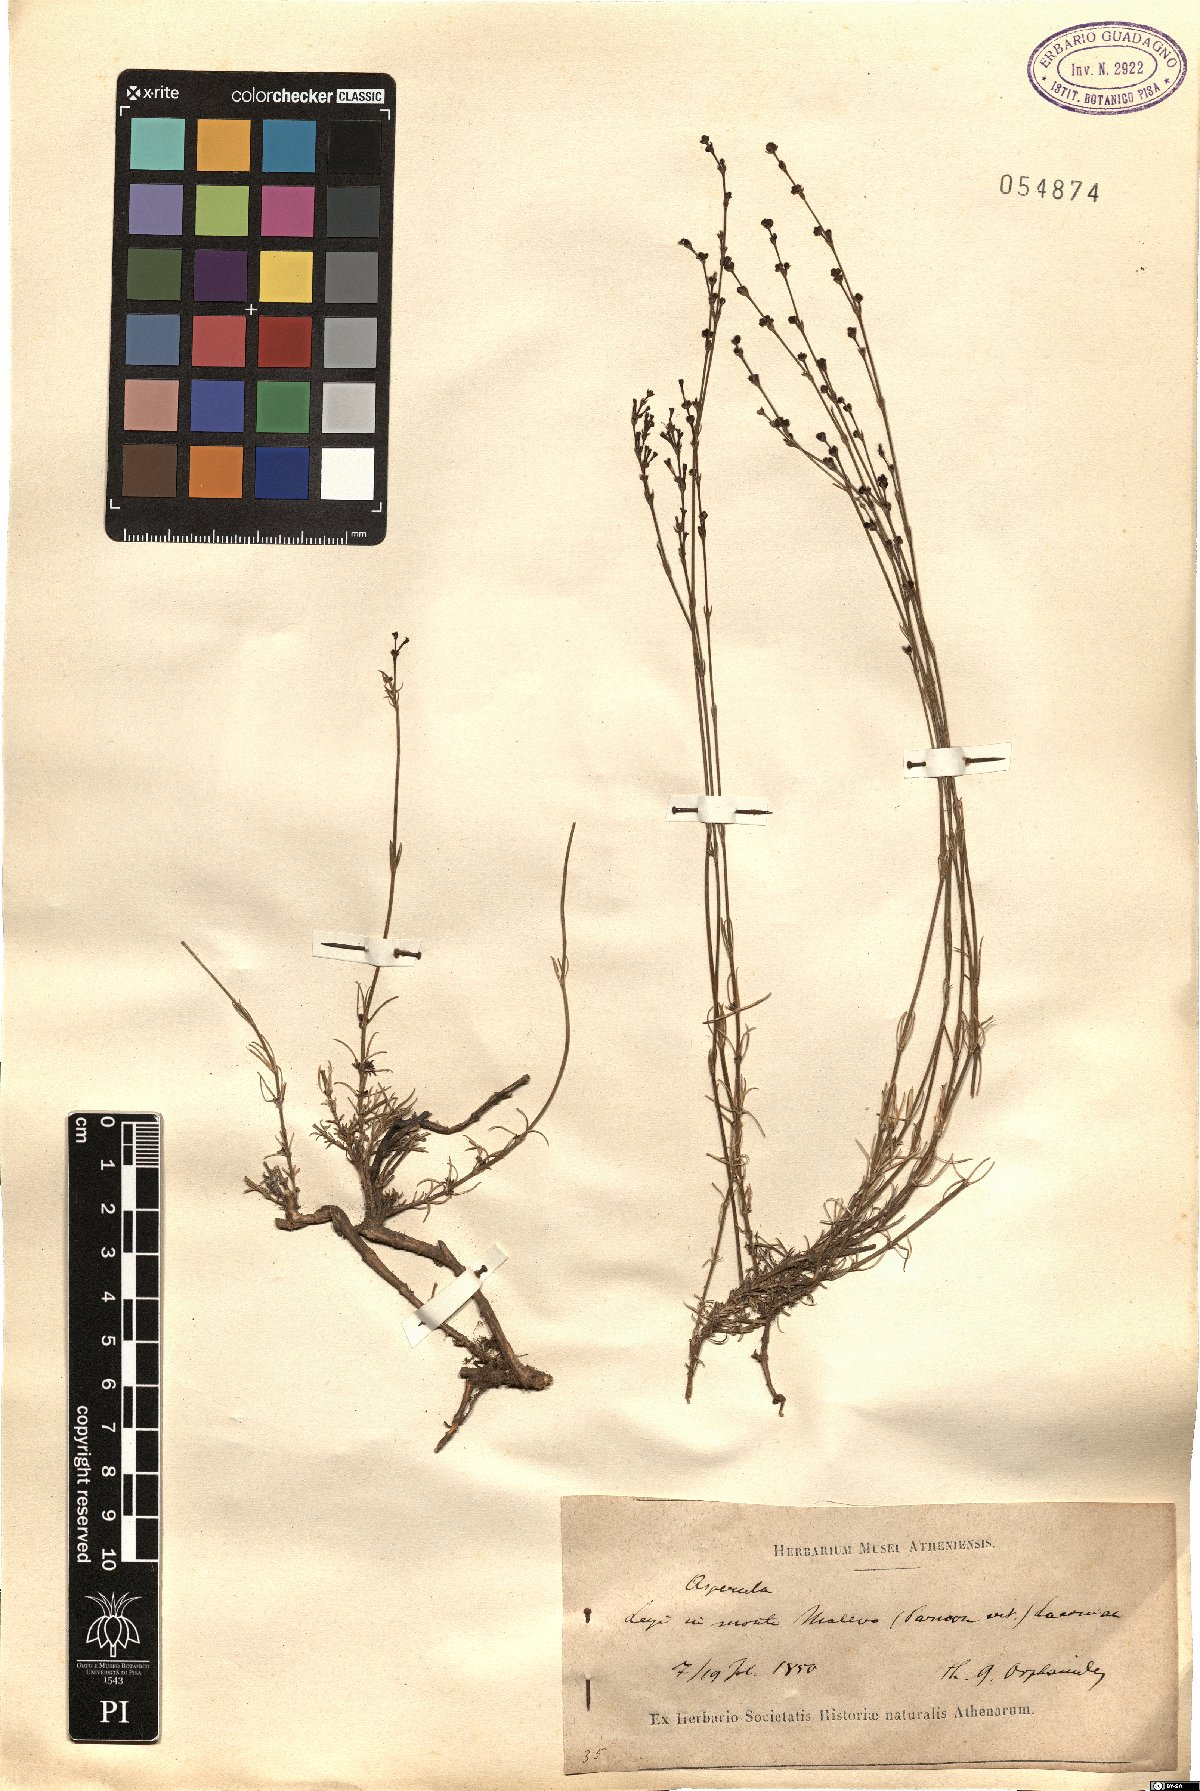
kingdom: Plantae
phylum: Tracheophyta
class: Magnoliopsida
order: Gentianales
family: Rubiaceae
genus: Asperula
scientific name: Asperula
